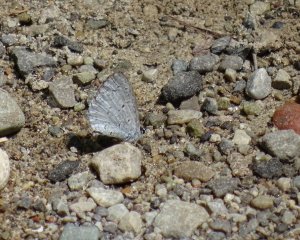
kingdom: Animalia
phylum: Arthropoda
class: Insecta
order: Lepidoptera
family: Lycaenidae
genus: Cyaniris
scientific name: Cyaniris neglecta
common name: Summer Azure
